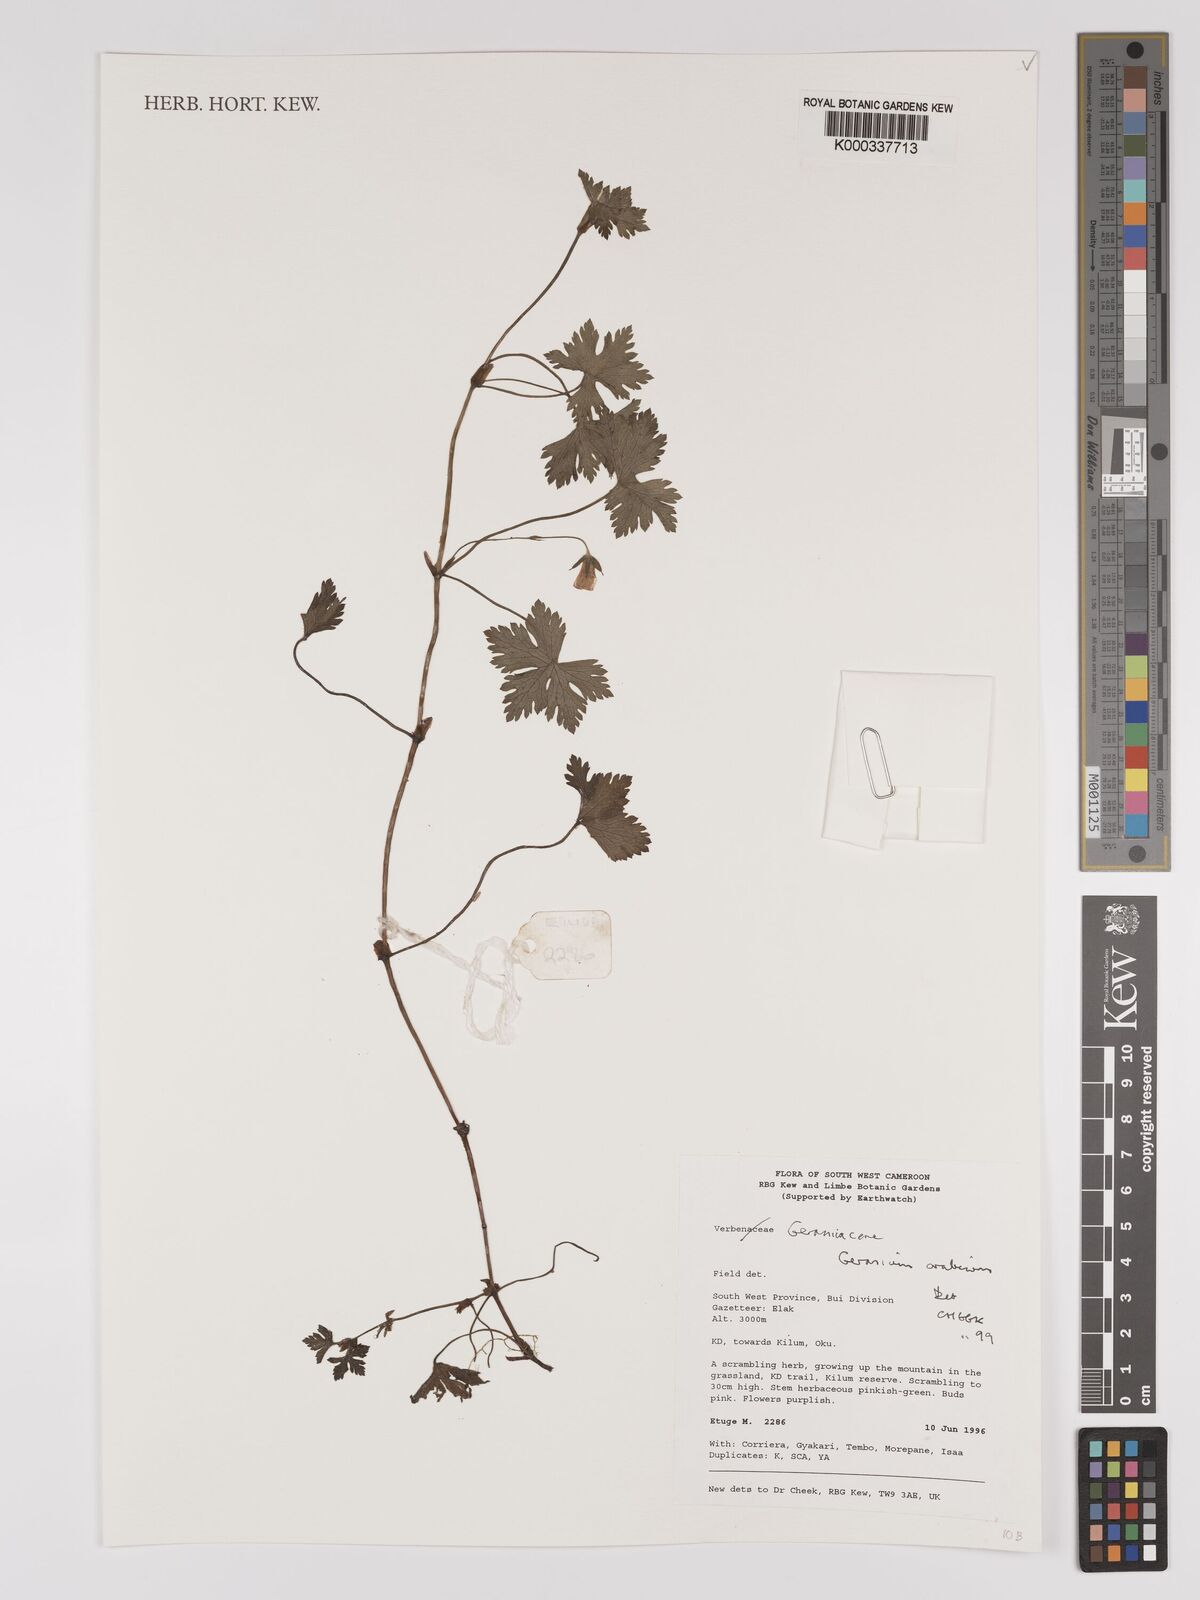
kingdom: Plantae
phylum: Tracheophyta
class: Magnoliopsida
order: Geraniales
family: Geraniaceae
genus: Geranium
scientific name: Geranium arabicum
